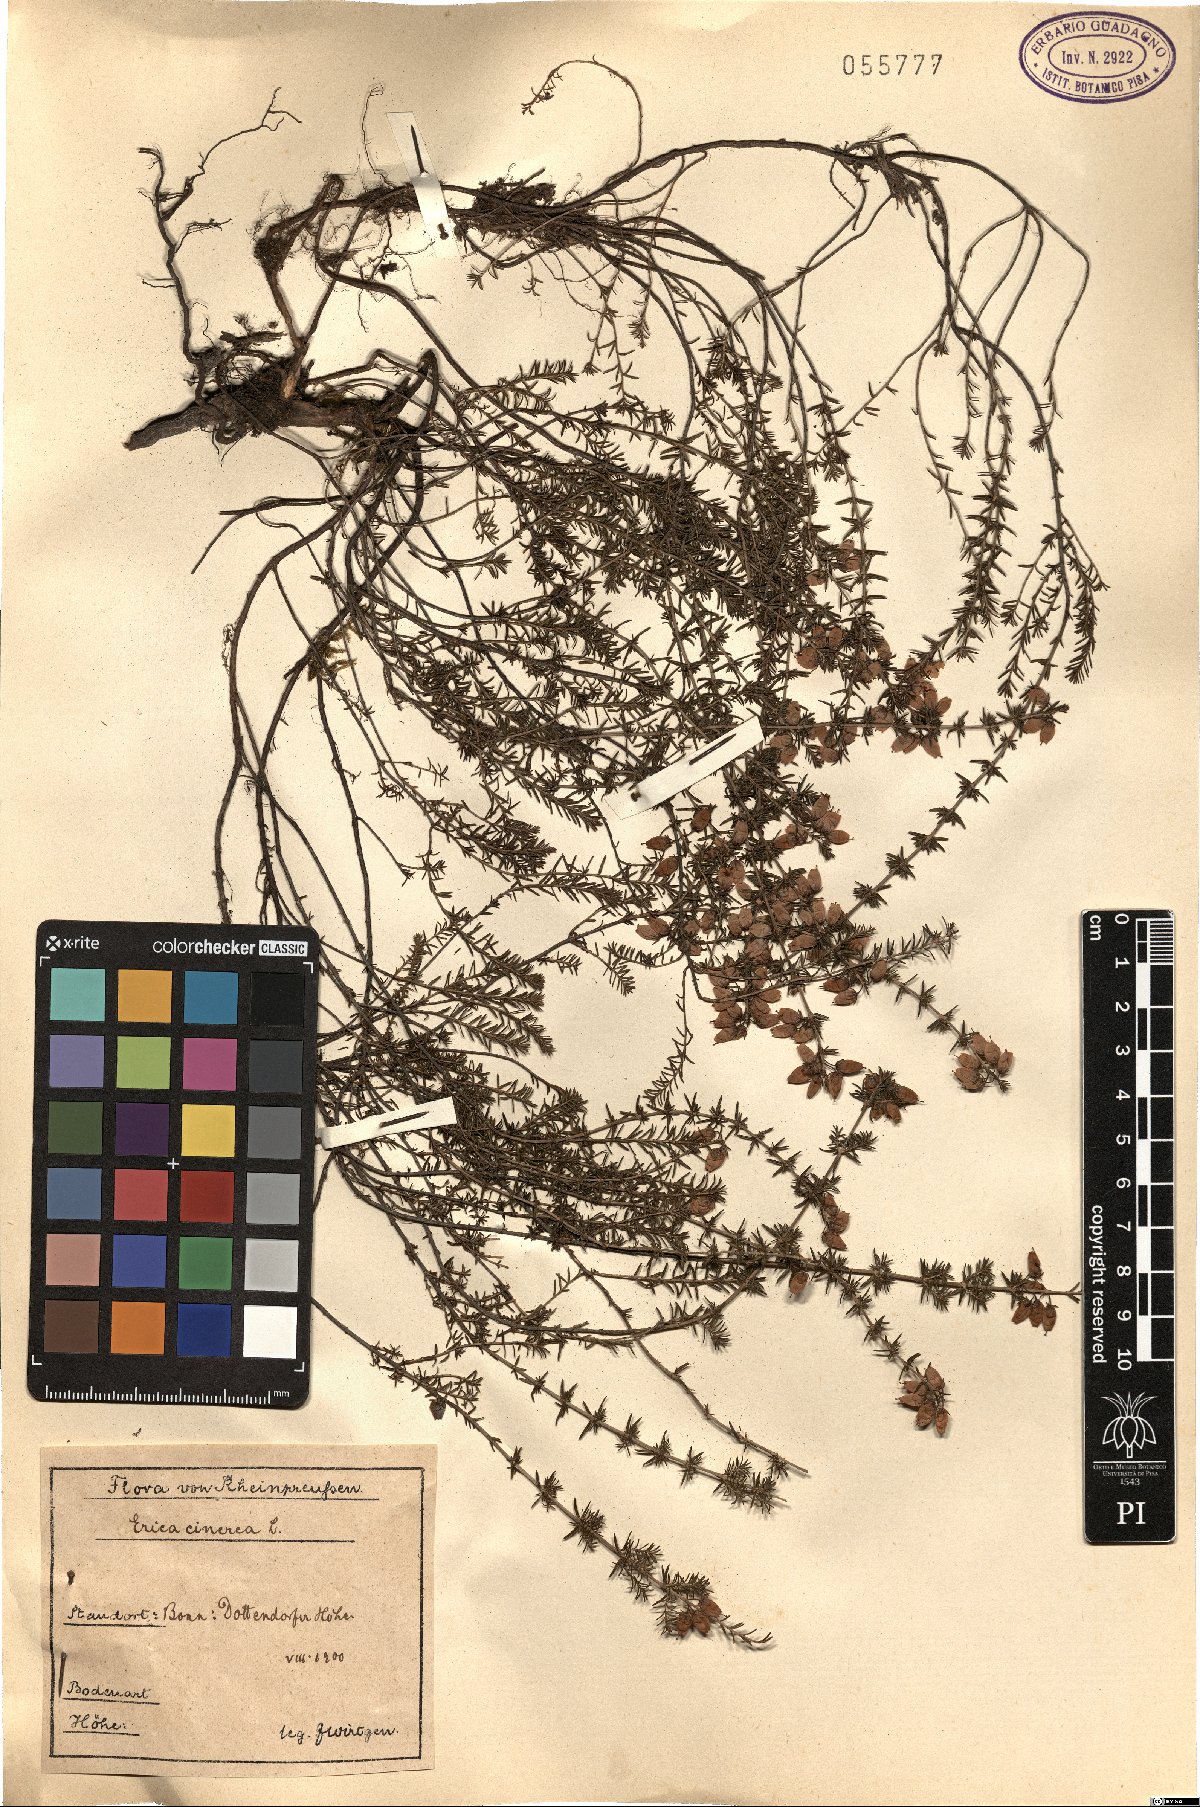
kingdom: Plantae
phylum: Tracheophyta
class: Magnoliopsida
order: Ericales
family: Ericaceae
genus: Erica
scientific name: Erica cinerea
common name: Bell heather
